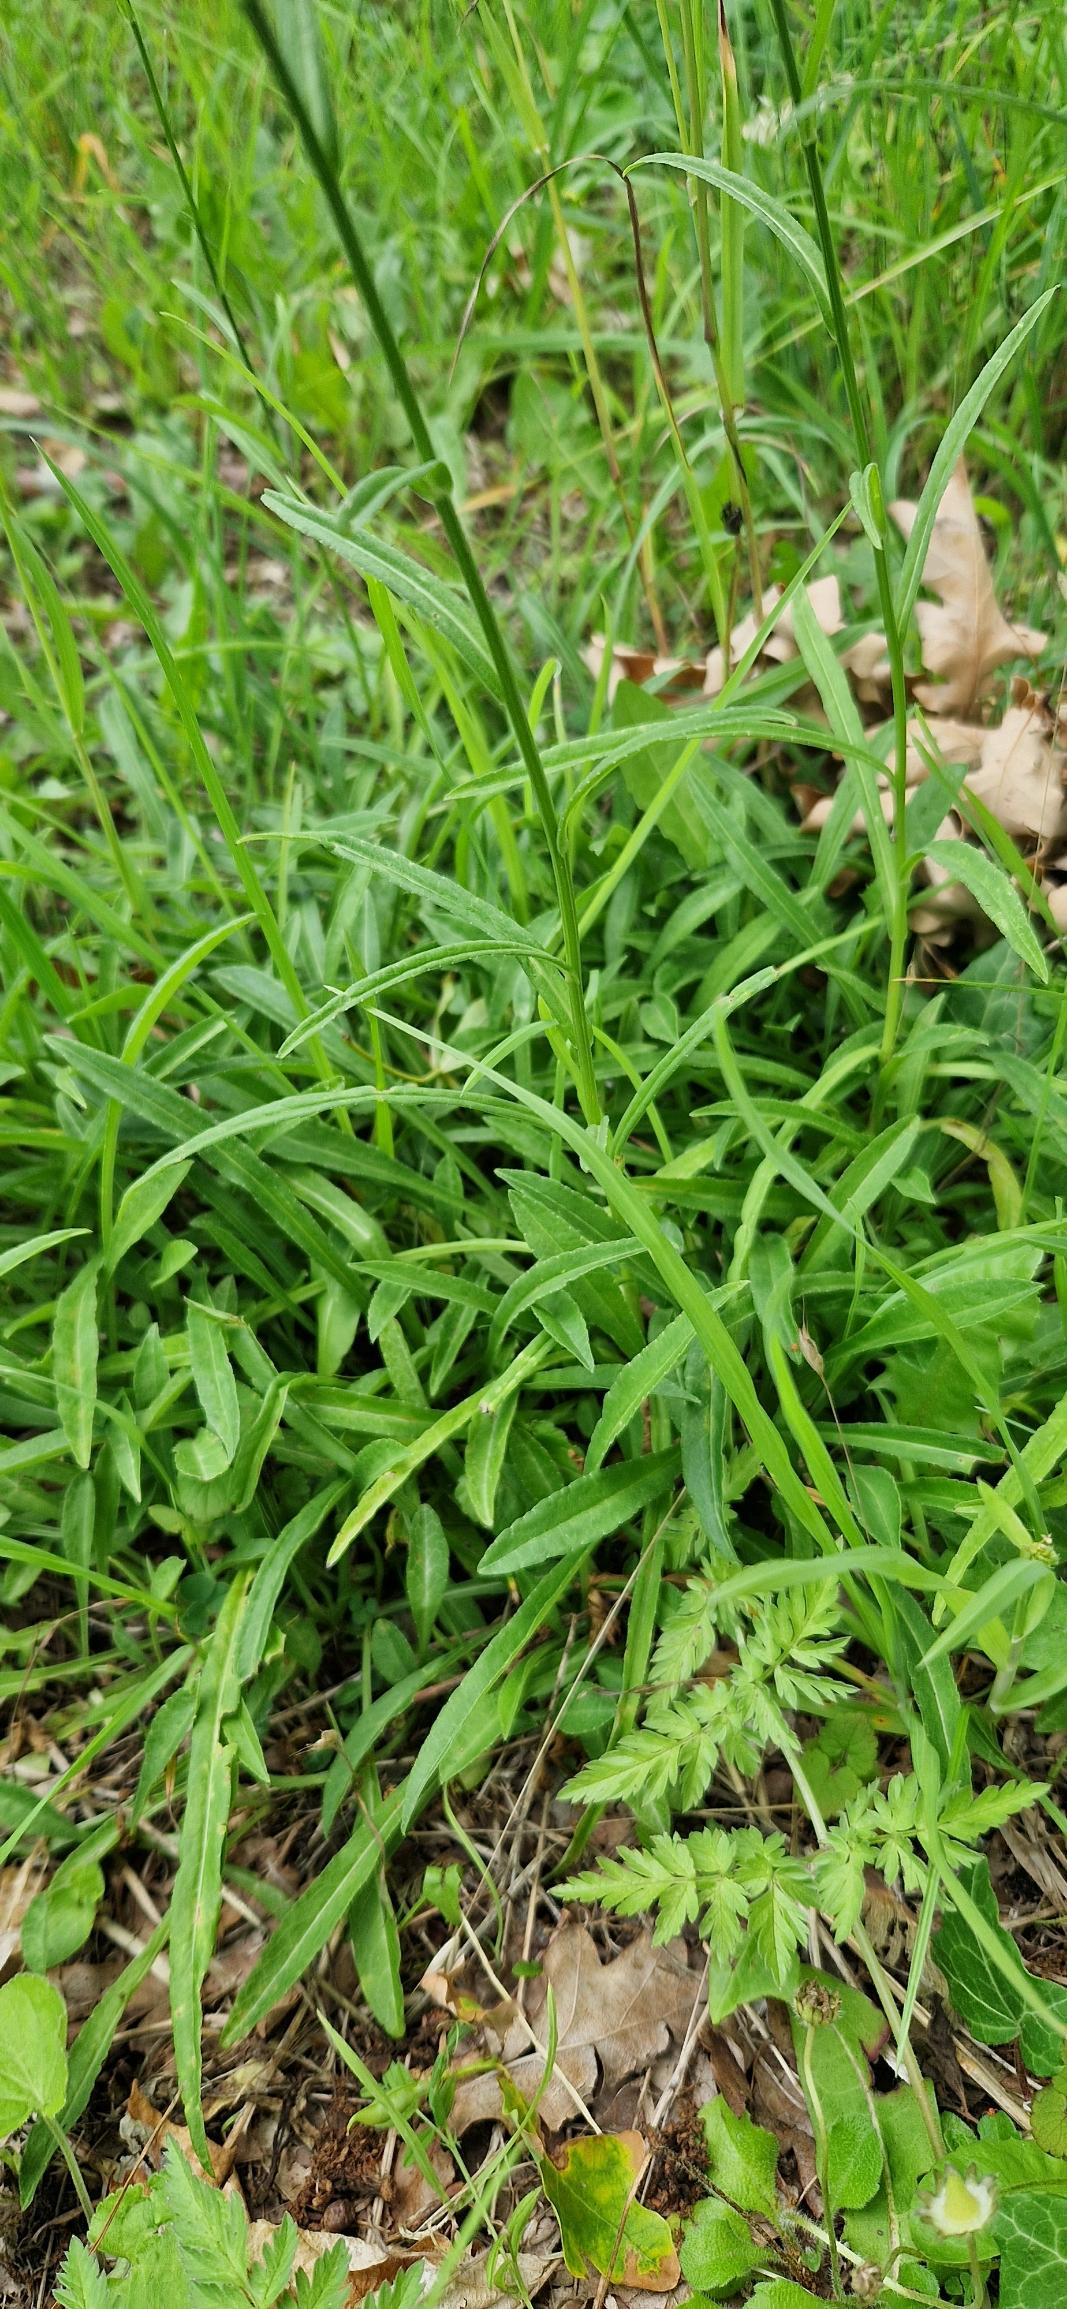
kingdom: Plantae
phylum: Tracheophyta
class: Magnoliopsida
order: Asterales
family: Campanulaceae
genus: Campanula
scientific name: Campanula persicifolia
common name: Smalbladet klokke
